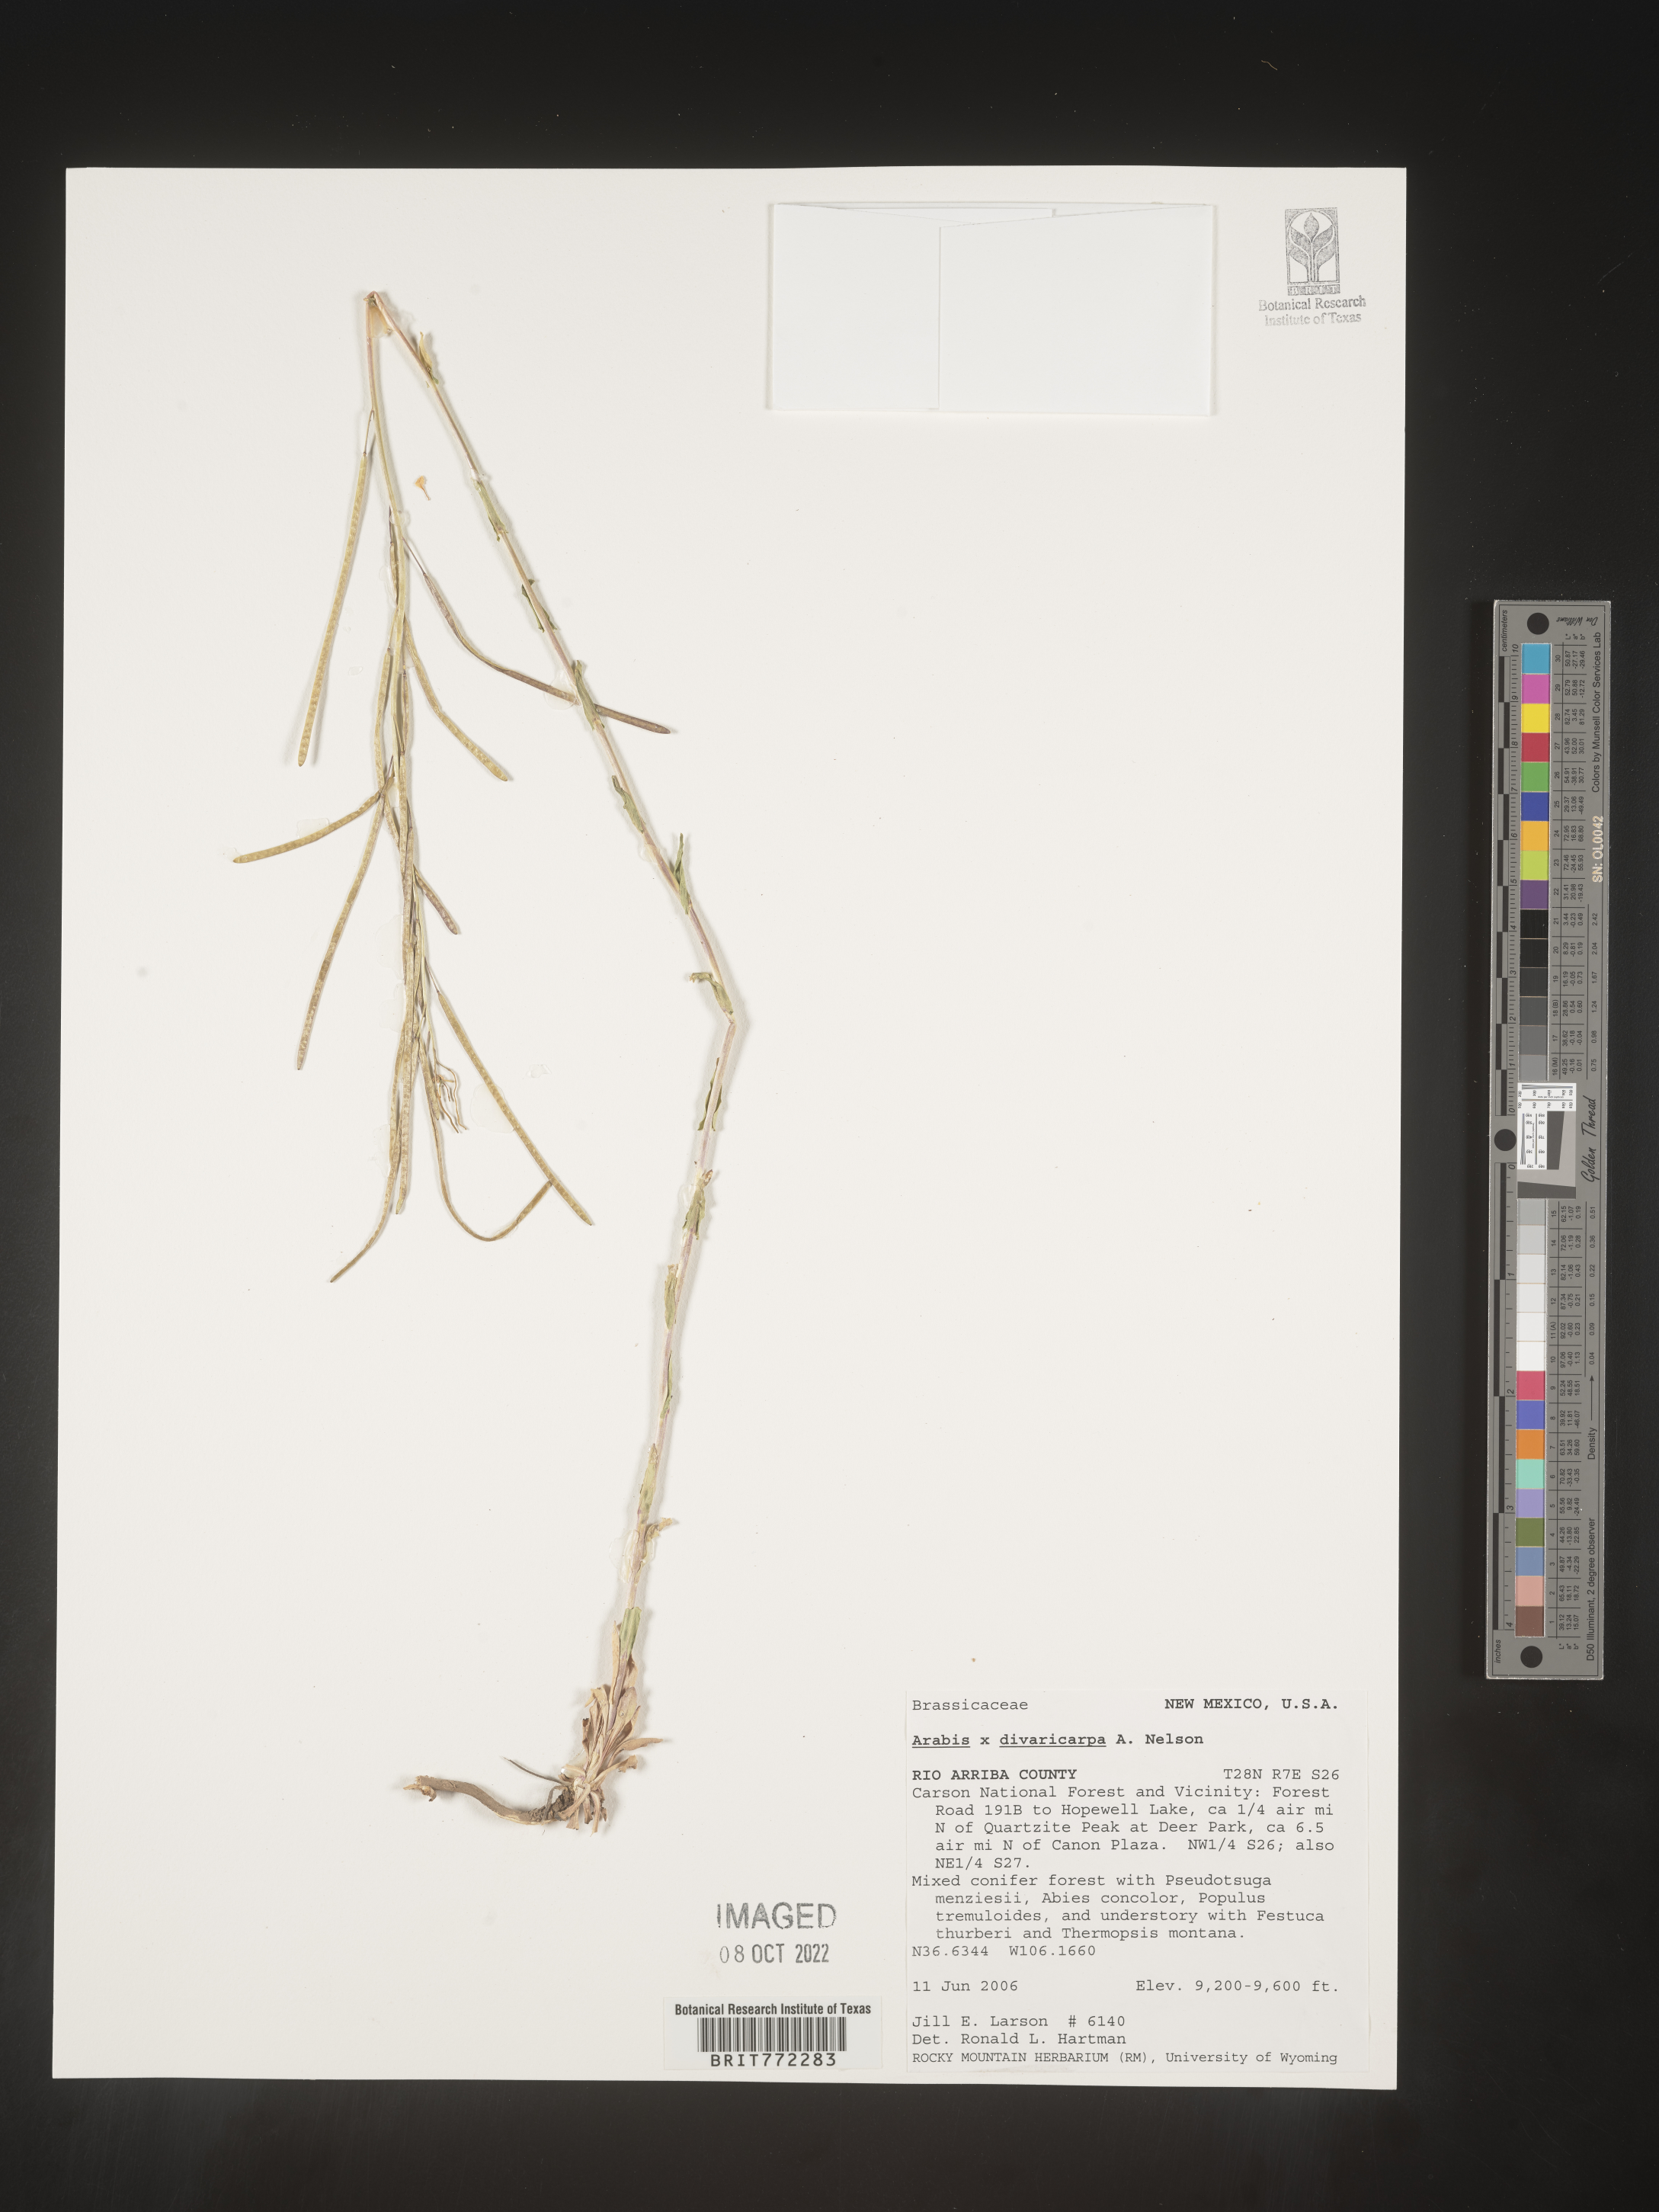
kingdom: Plantae
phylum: Tracheophyta
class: Magnoliopsida
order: Brassicales
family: Brassicaceae
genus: Arabis
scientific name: Arabis
